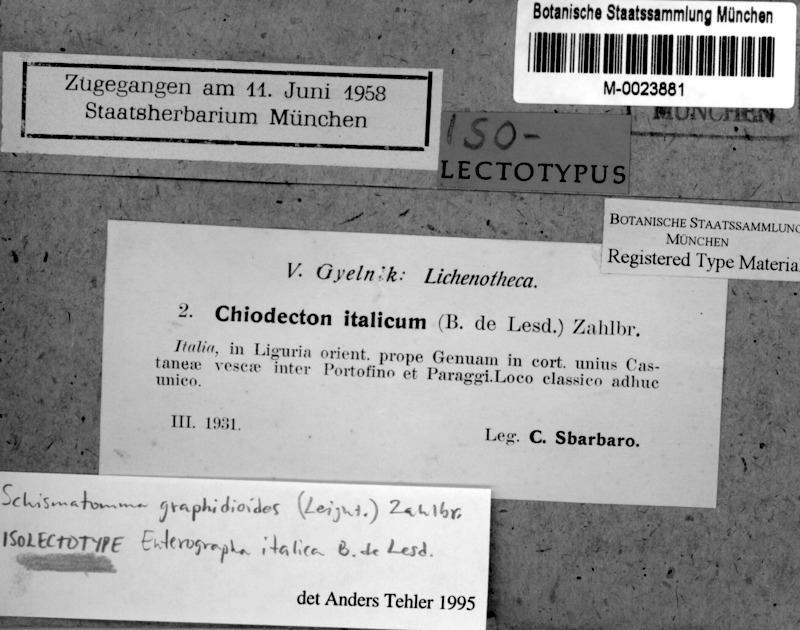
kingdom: Fungi
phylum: Ascomycota
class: Arthoniomycetes
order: Arthoniales
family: Roccellaceae
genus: Schismatomma
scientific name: Schismatomma graphidioides
